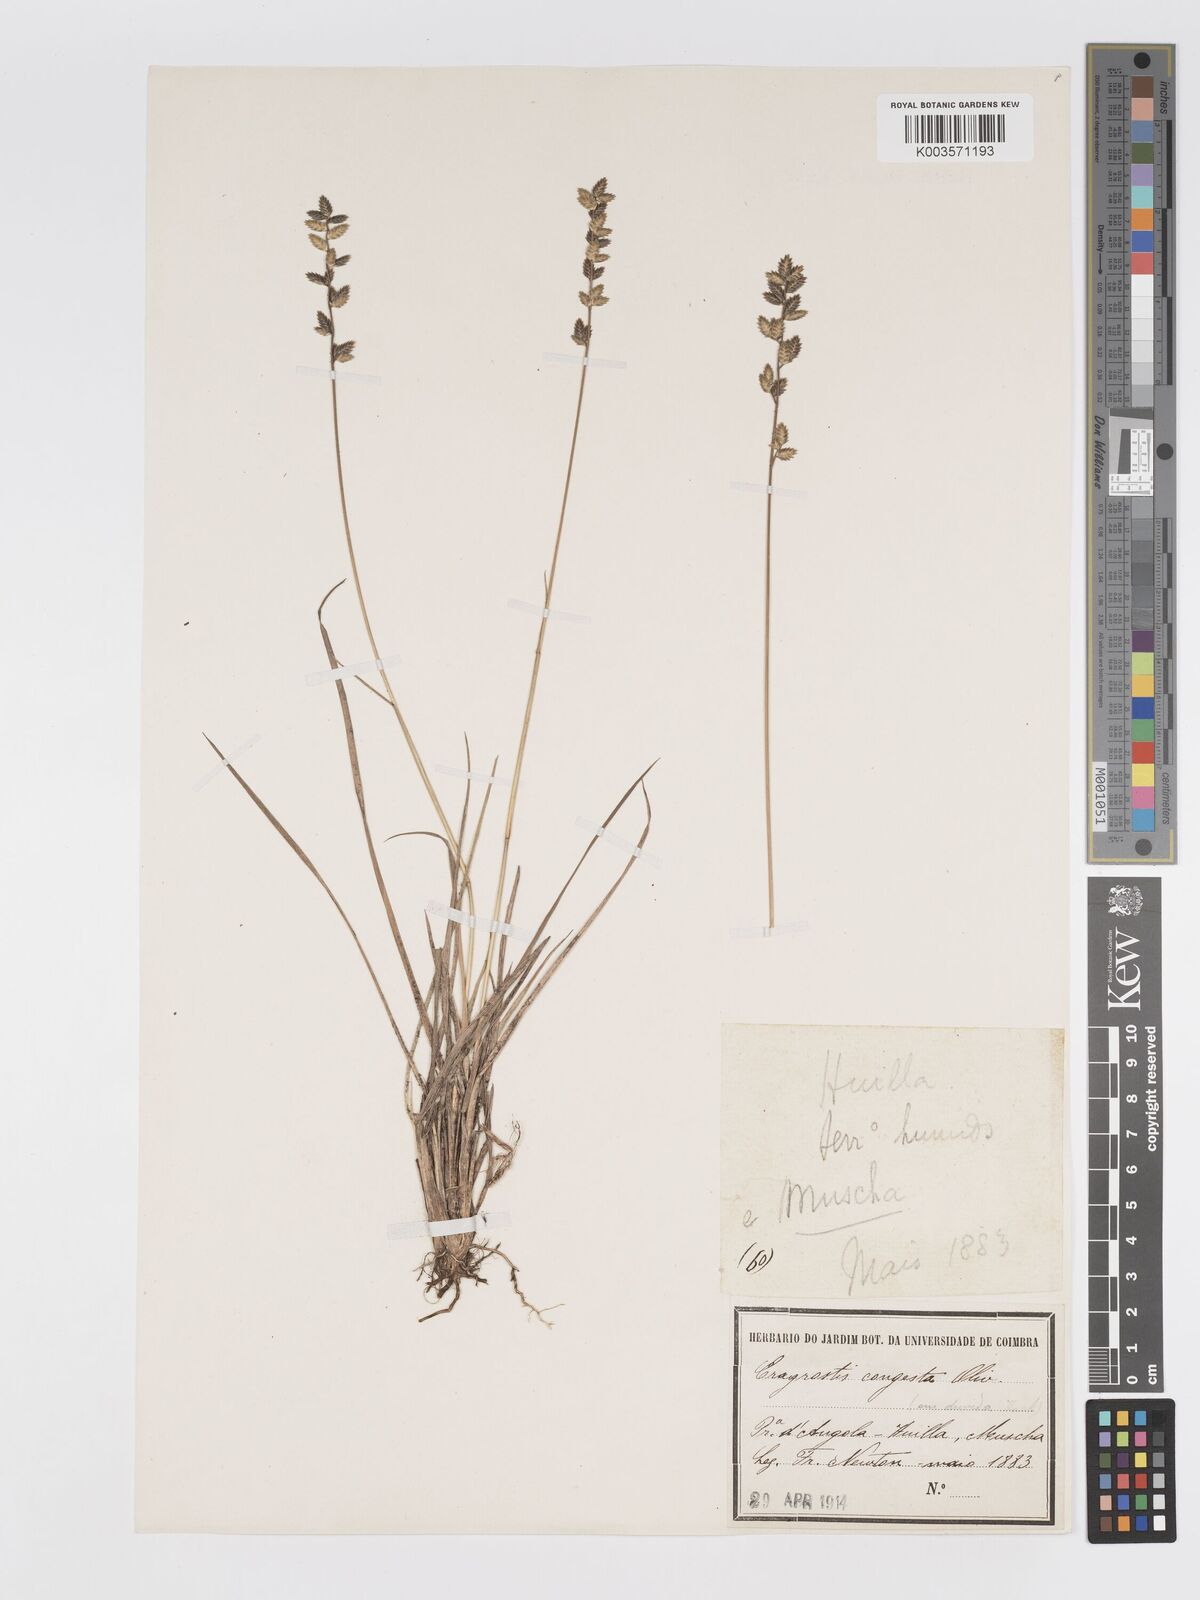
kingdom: Plantae
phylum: Tracheophyta
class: Liliopsida
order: Poales
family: Poaceae
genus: Eragrostis
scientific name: Eragrostis nindensis
